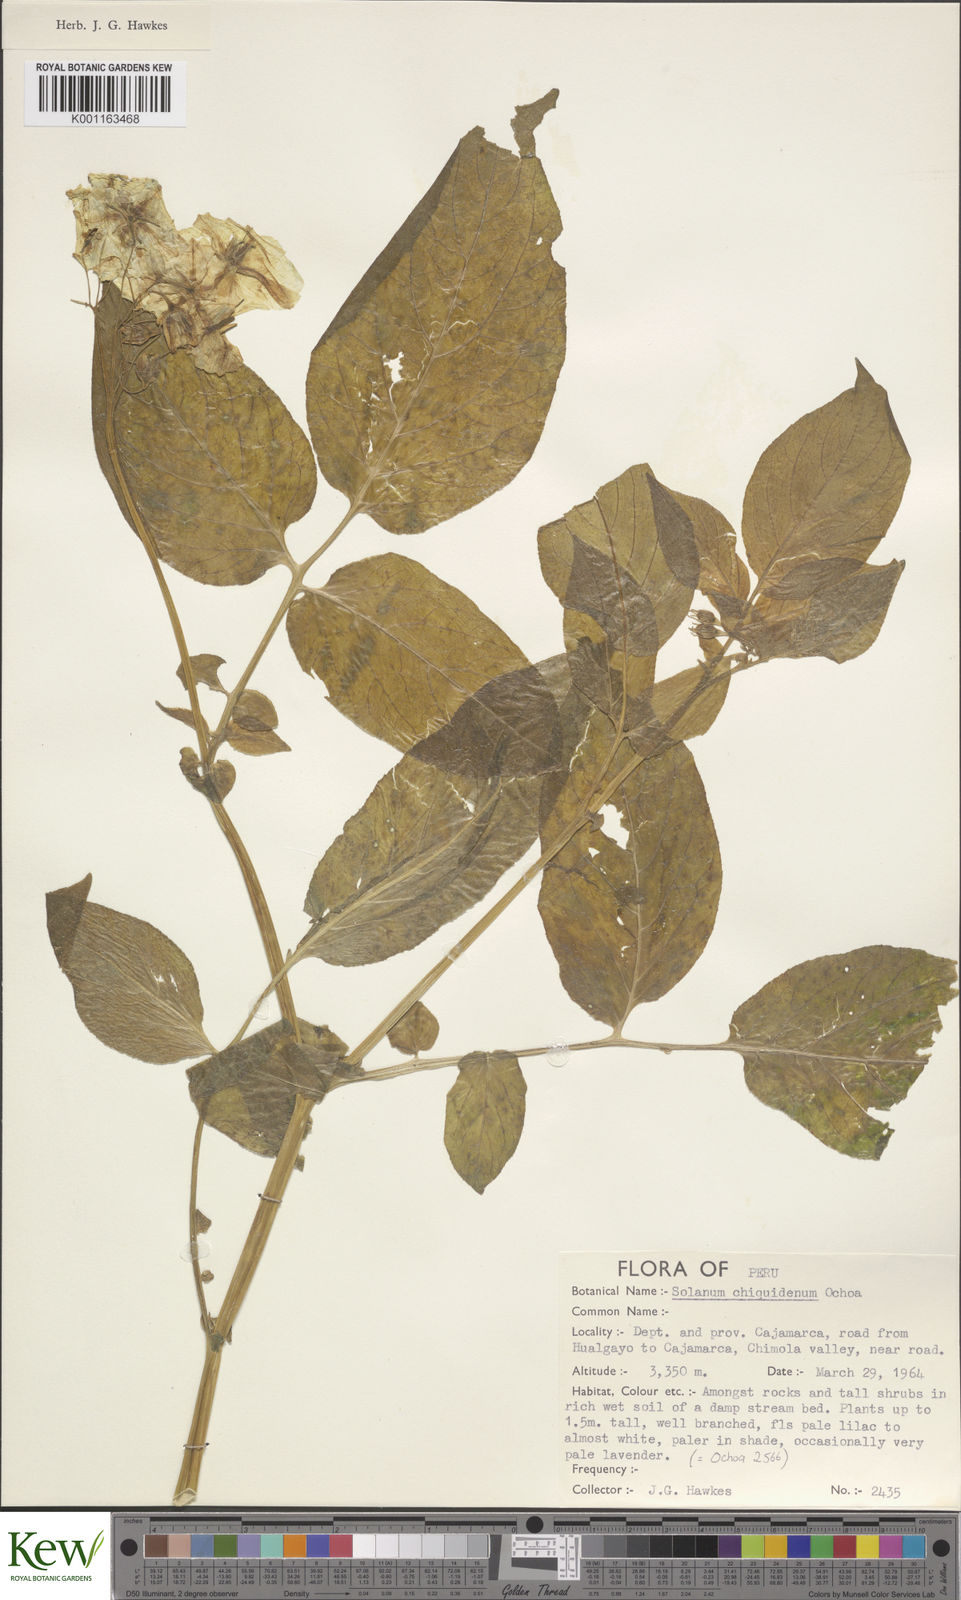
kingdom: Plantae
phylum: Tracheophyta
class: Magnoliopsida
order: Solanales
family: Solanaceae
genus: Solanum
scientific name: Solanum chiquidenum
